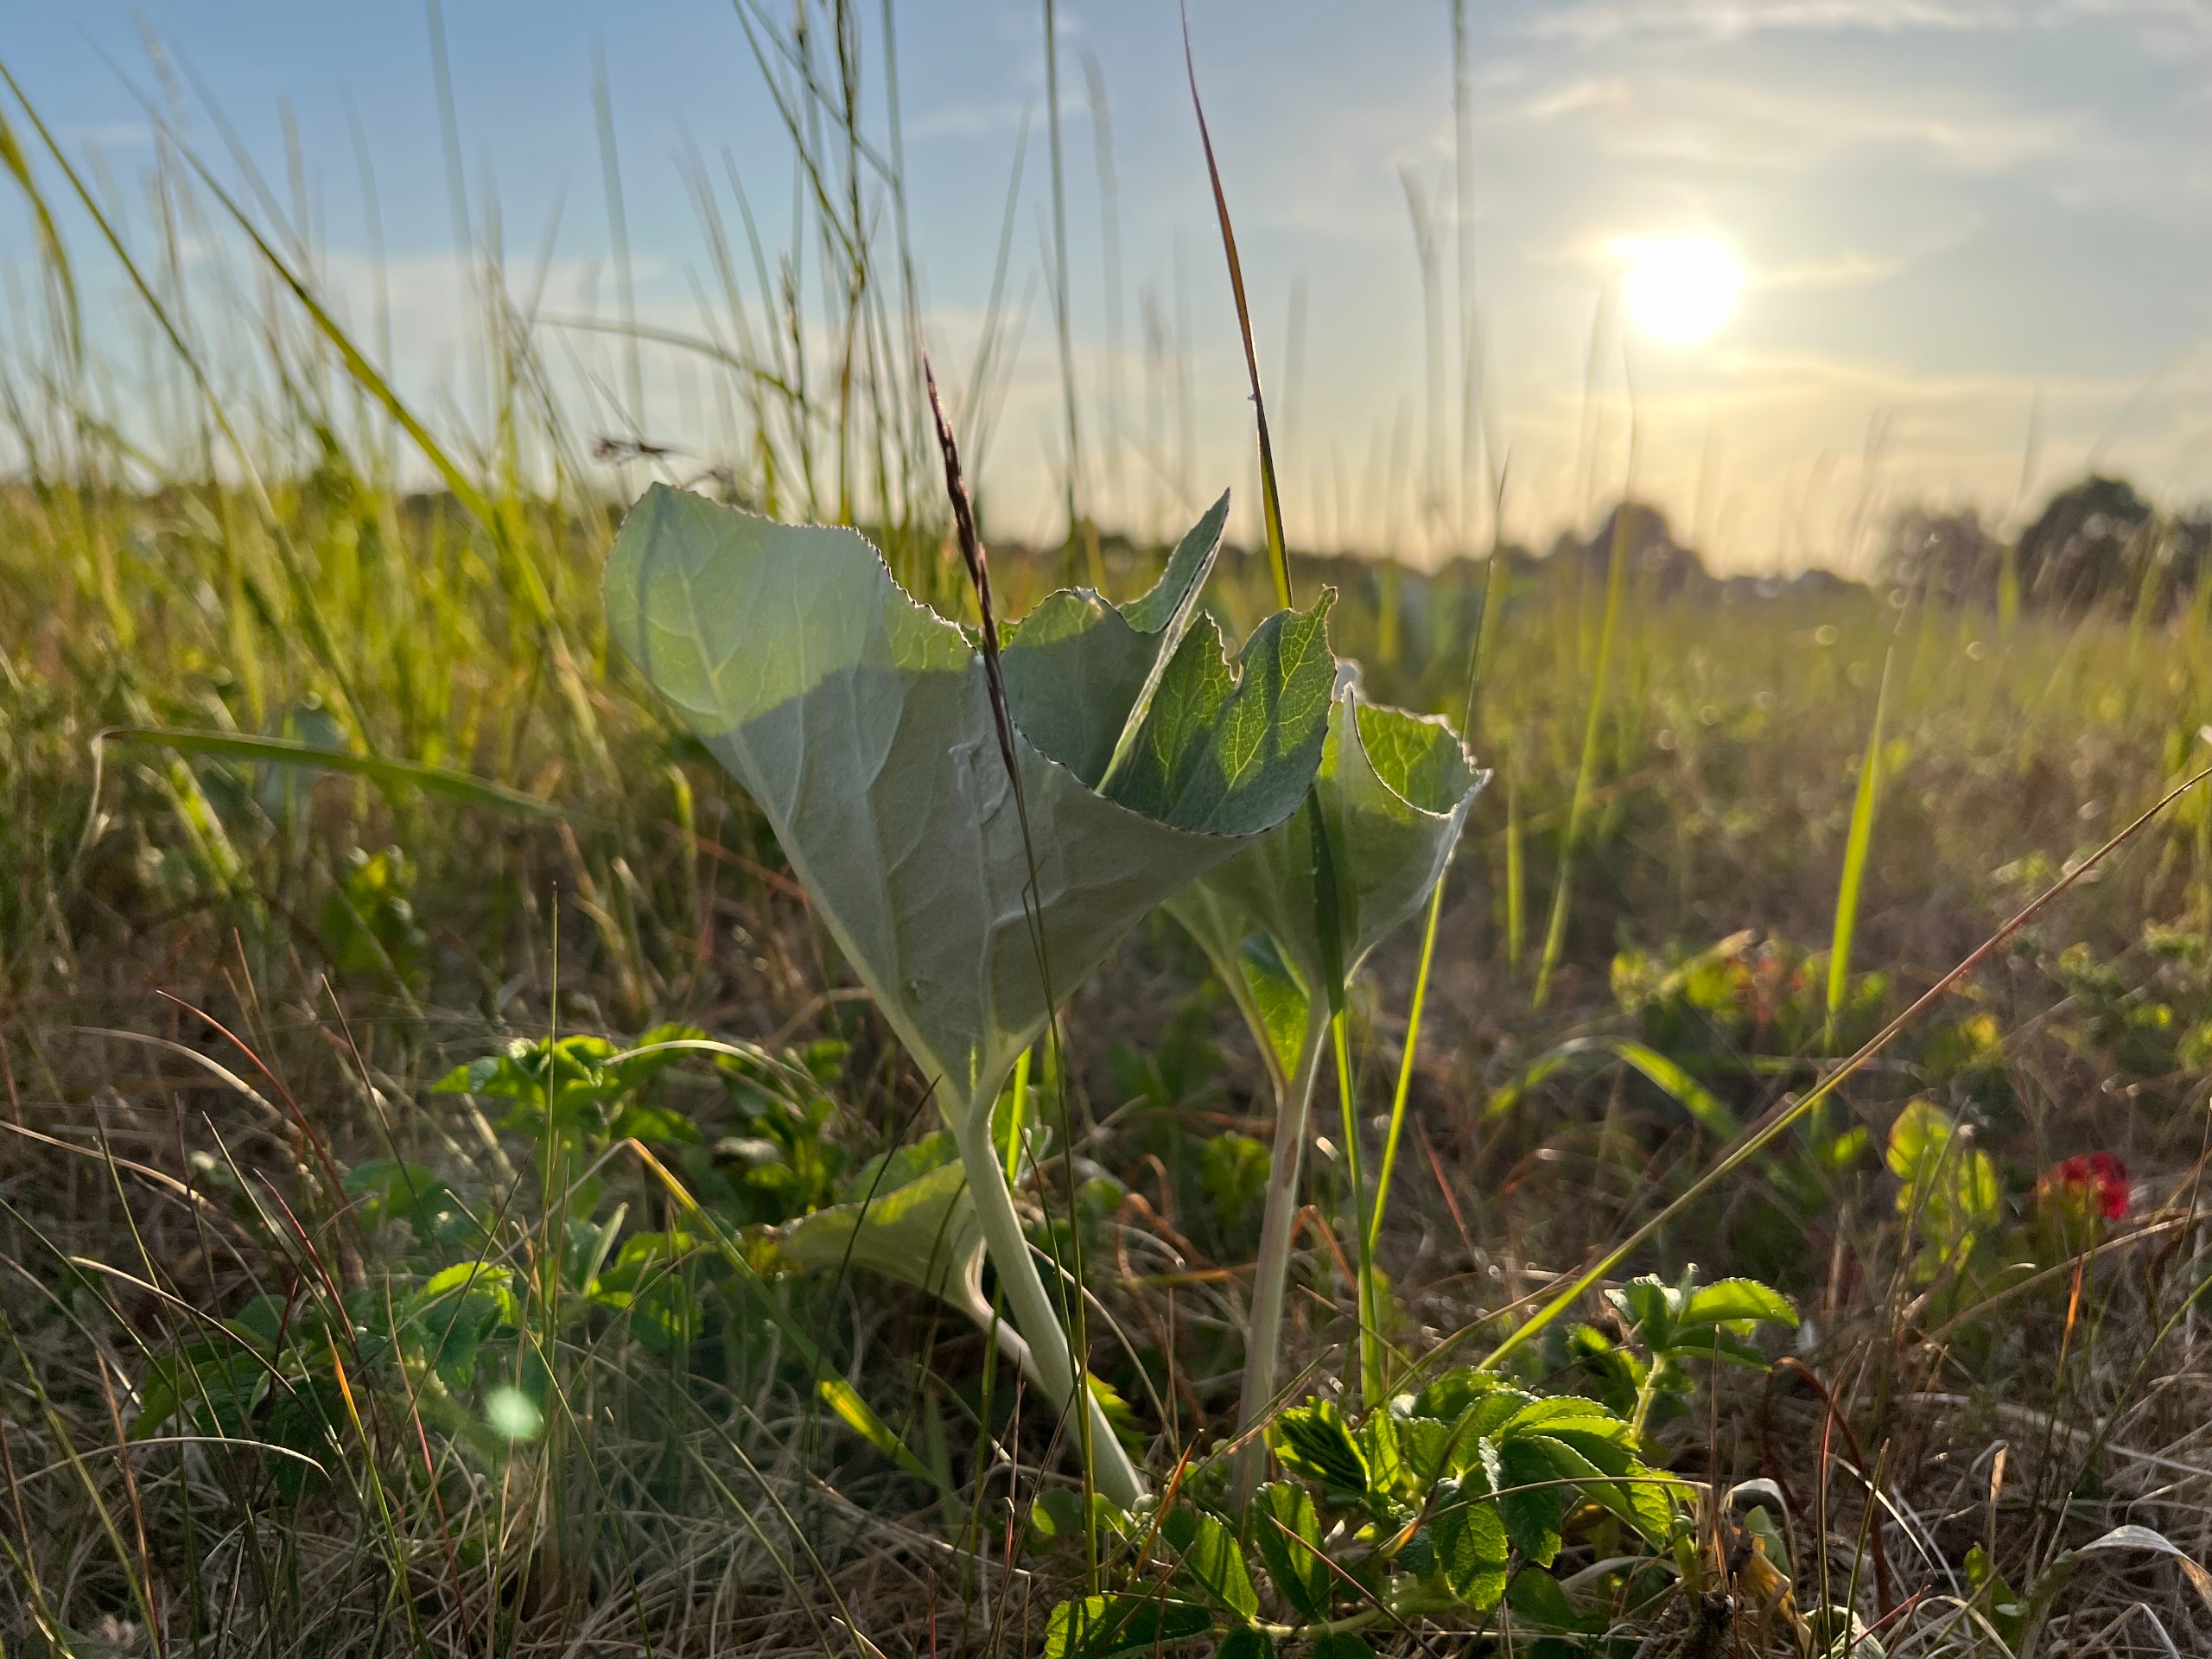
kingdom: Plantae
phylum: Tracheophyta
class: Magnoliopsida
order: Asterales
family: Asteraceae
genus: Petasites
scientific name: Petasites spurius
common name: Filtet hestehov
